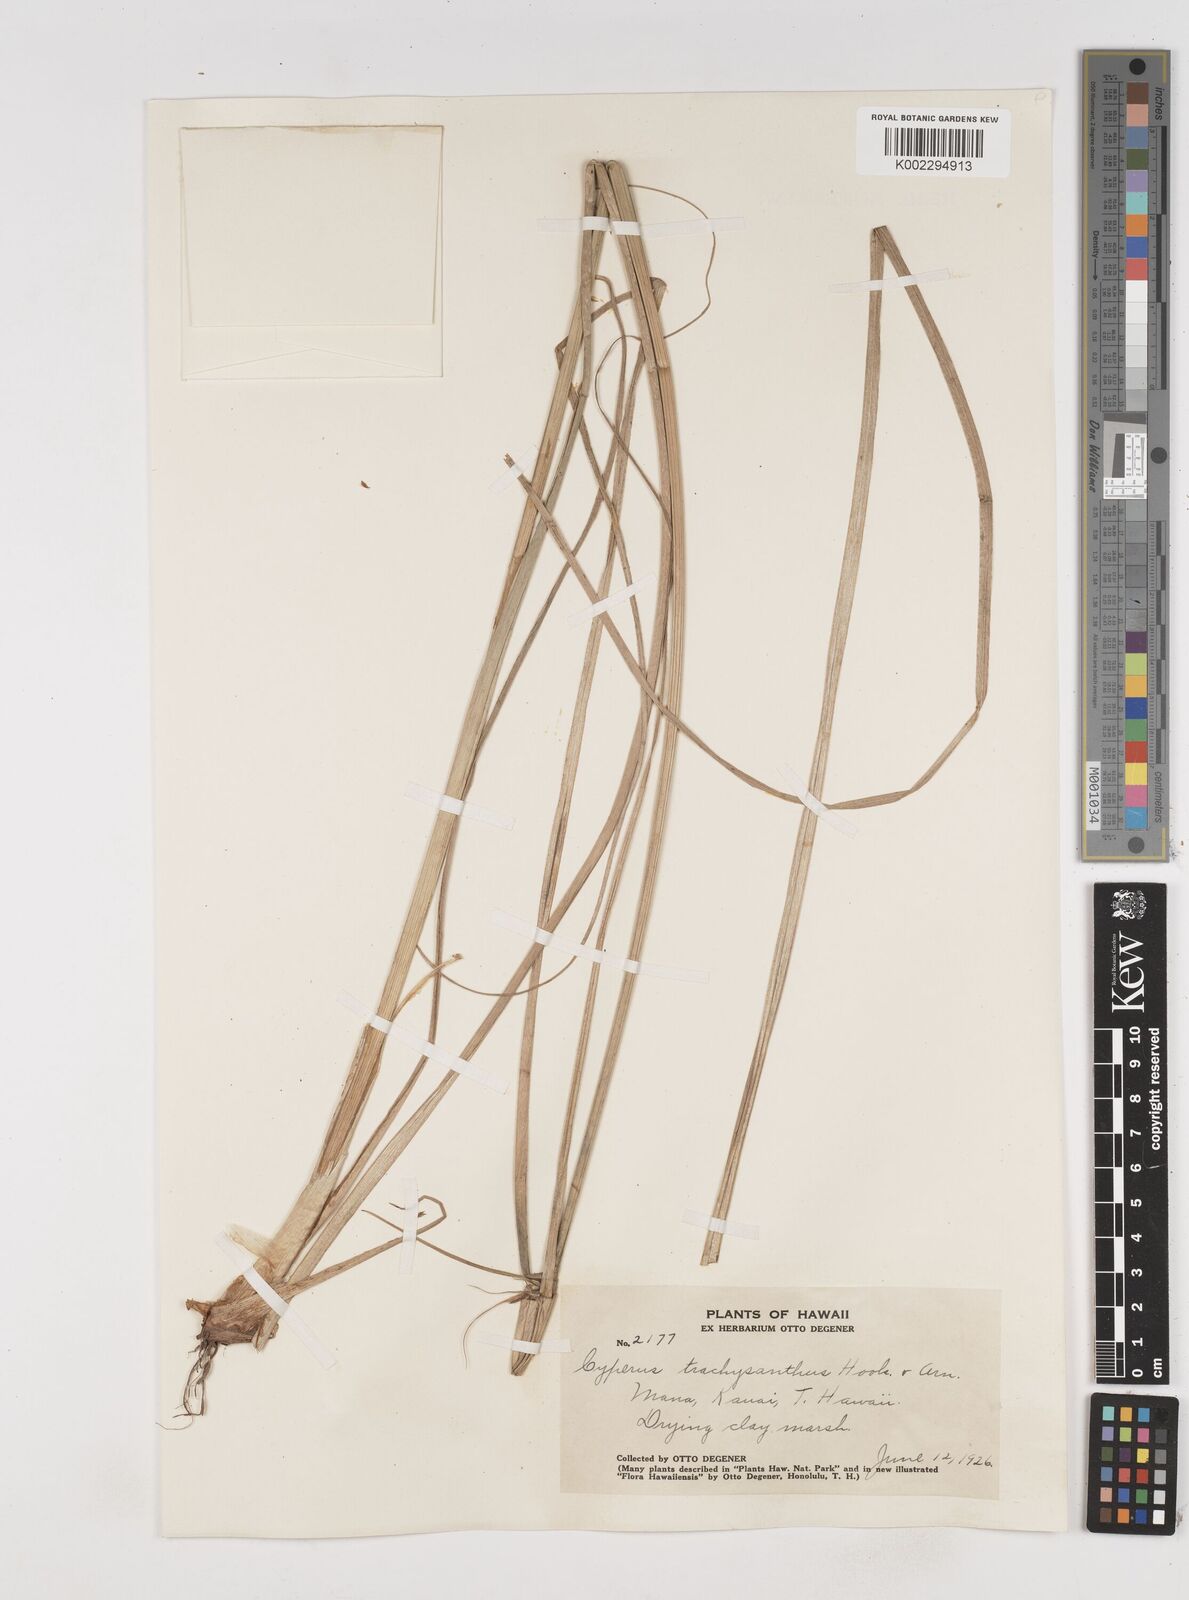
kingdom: Plantae
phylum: Tracheophyta
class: Liliopsida
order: Poales
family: Cyperaceae
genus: Cyperus
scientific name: Cyperus trachysanthos
